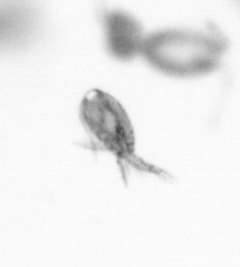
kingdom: Animalia
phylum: Arthropoda
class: Copepoda
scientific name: Copepoda
